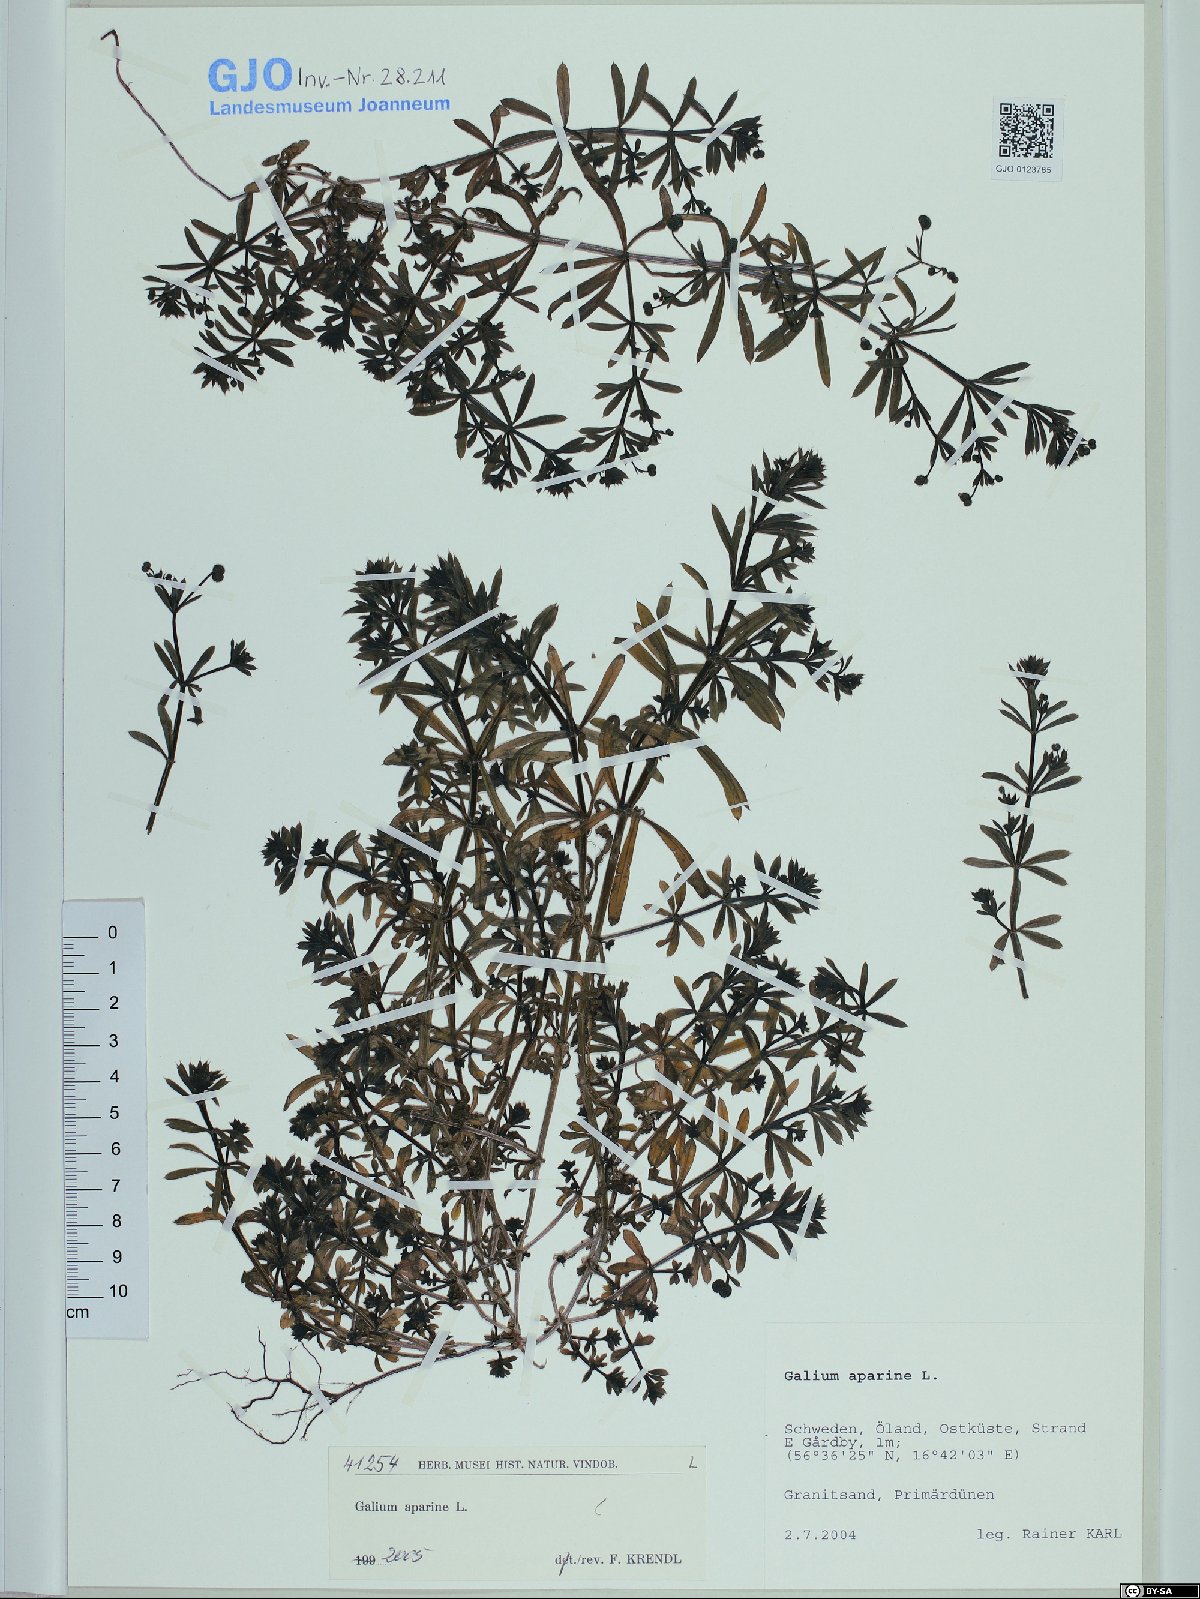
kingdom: Plantae
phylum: Tracheophyta
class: Magnoliopsida
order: Gentianales
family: Rubiaceae
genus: Galium
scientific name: Galium aparine
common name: Cleavers
